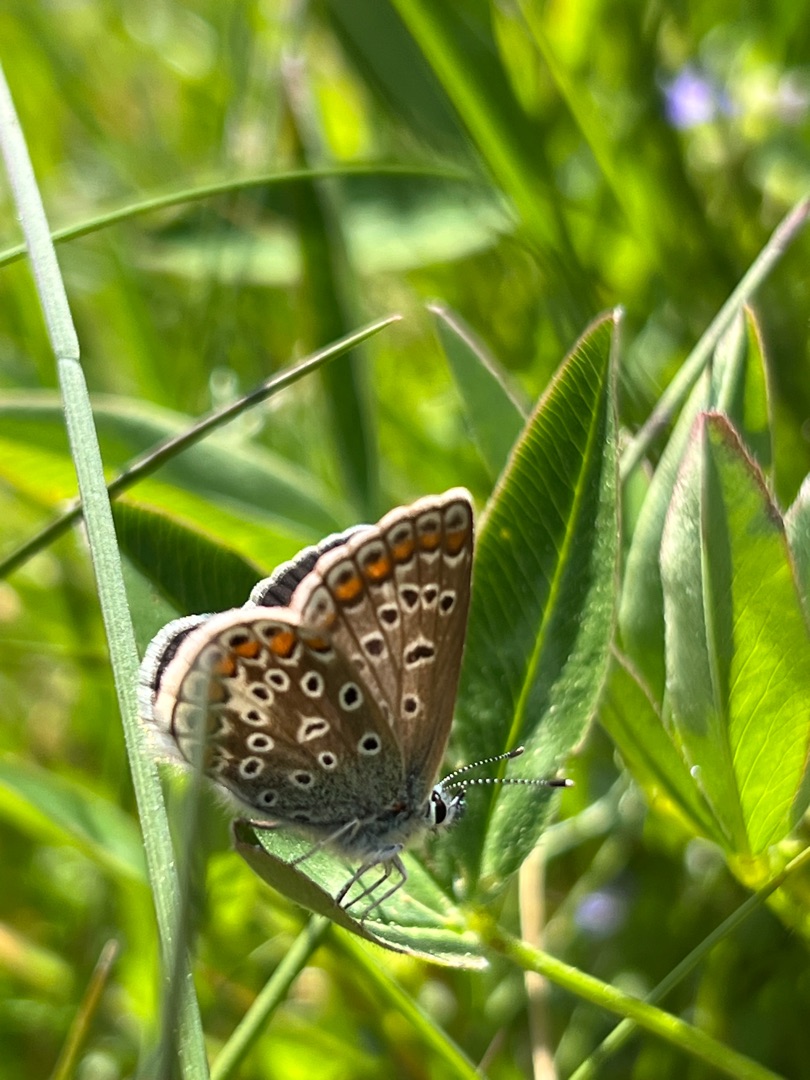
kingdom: Animalia
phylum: Arthropoda
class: Insecta
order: Lepidoptera
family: Lycaenidae
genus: Polyommatus
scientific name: Polyommatus icarus
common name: Almindelig blåfugl
